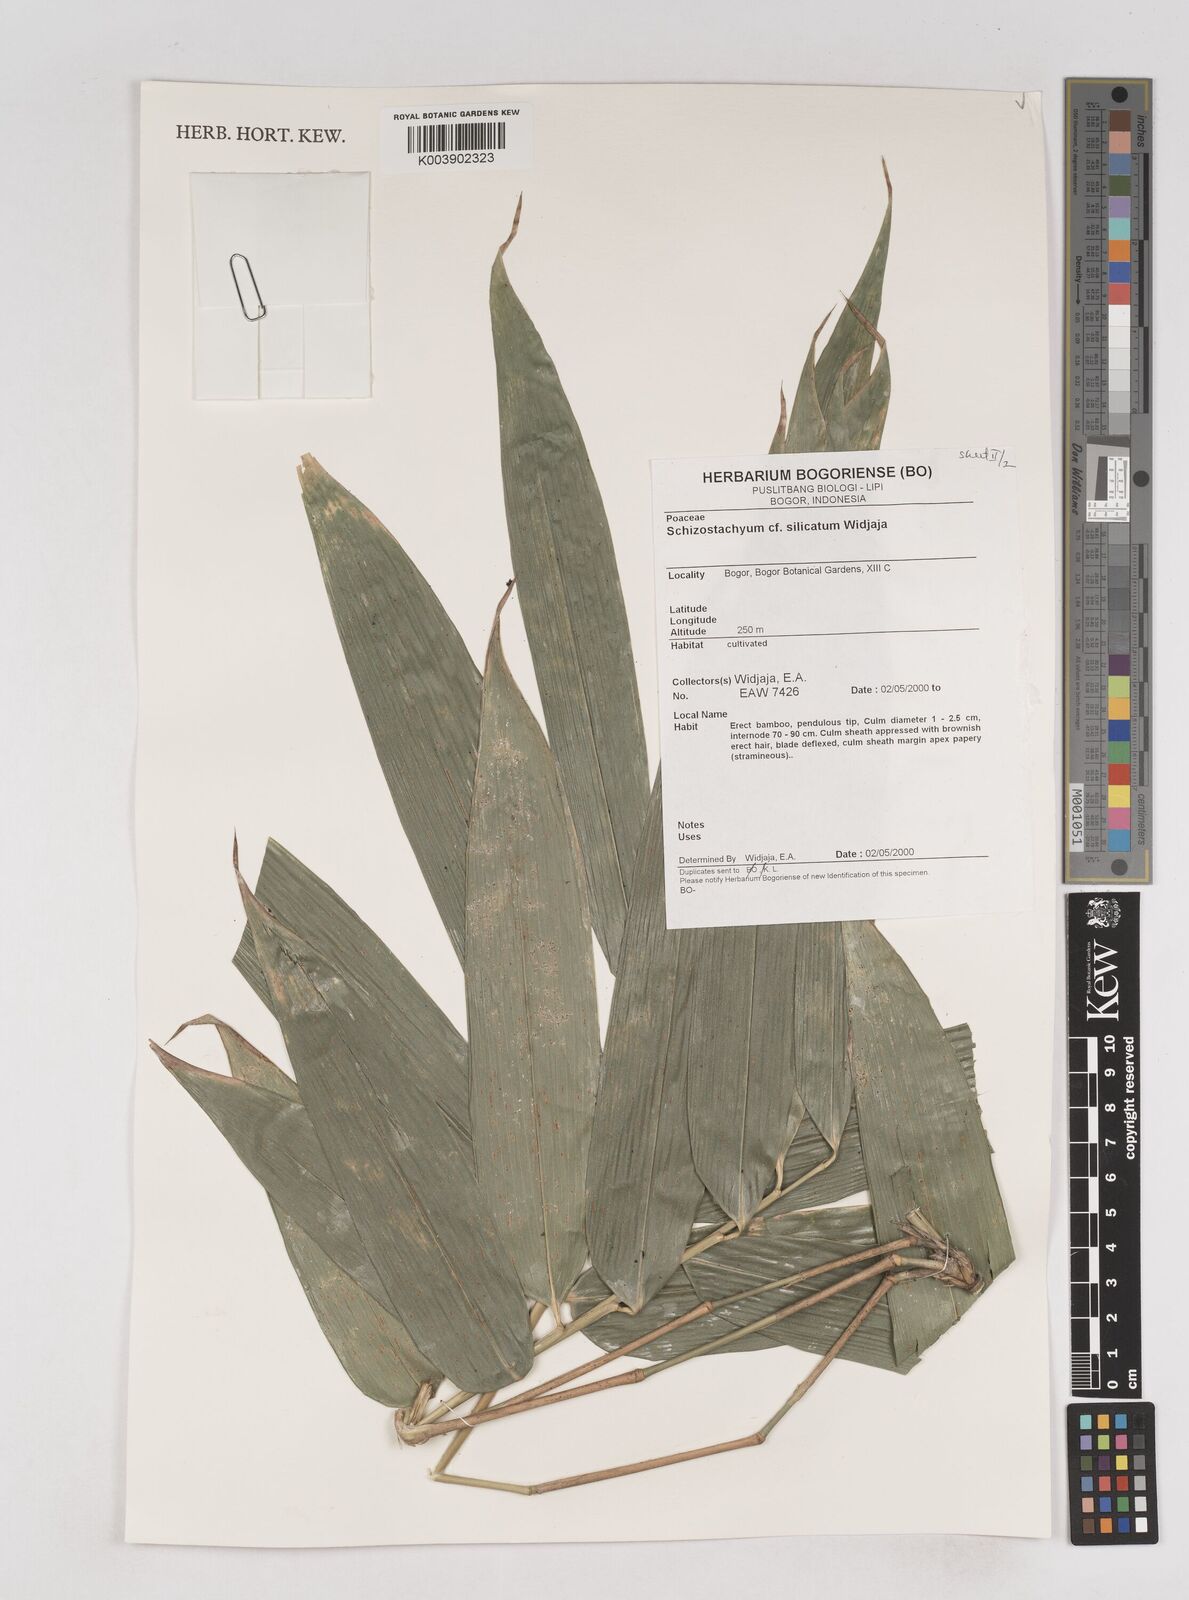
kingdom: Plantae
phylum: Tracheophyta
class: Liliopsida
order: Poales
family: Poaceae
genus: Schizostachyum
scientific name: Schizostachyum silicatum
